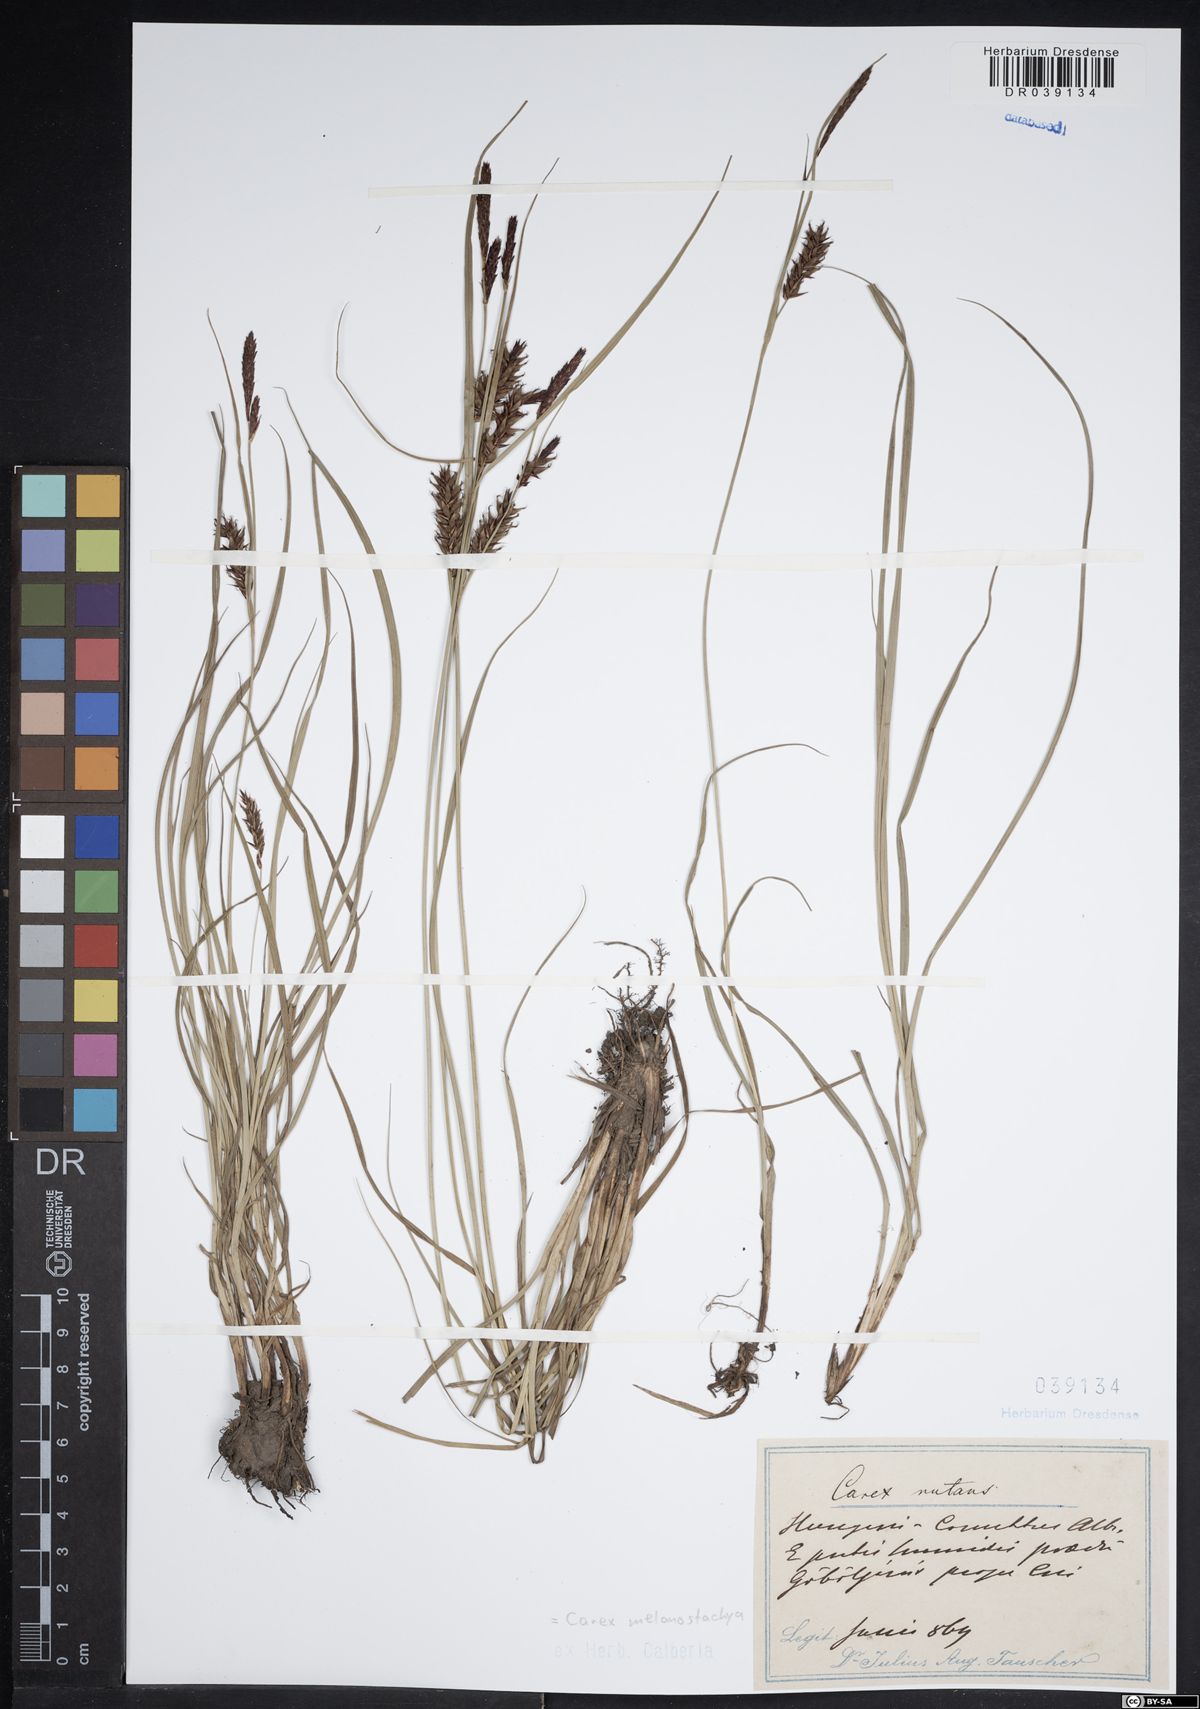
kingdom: Plantae
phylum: Tracheophyta
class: Liliopsida
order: Poales
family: Cyperaceae
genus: Carex
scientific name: Carex melanostachya
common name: Black-spiked sedge
